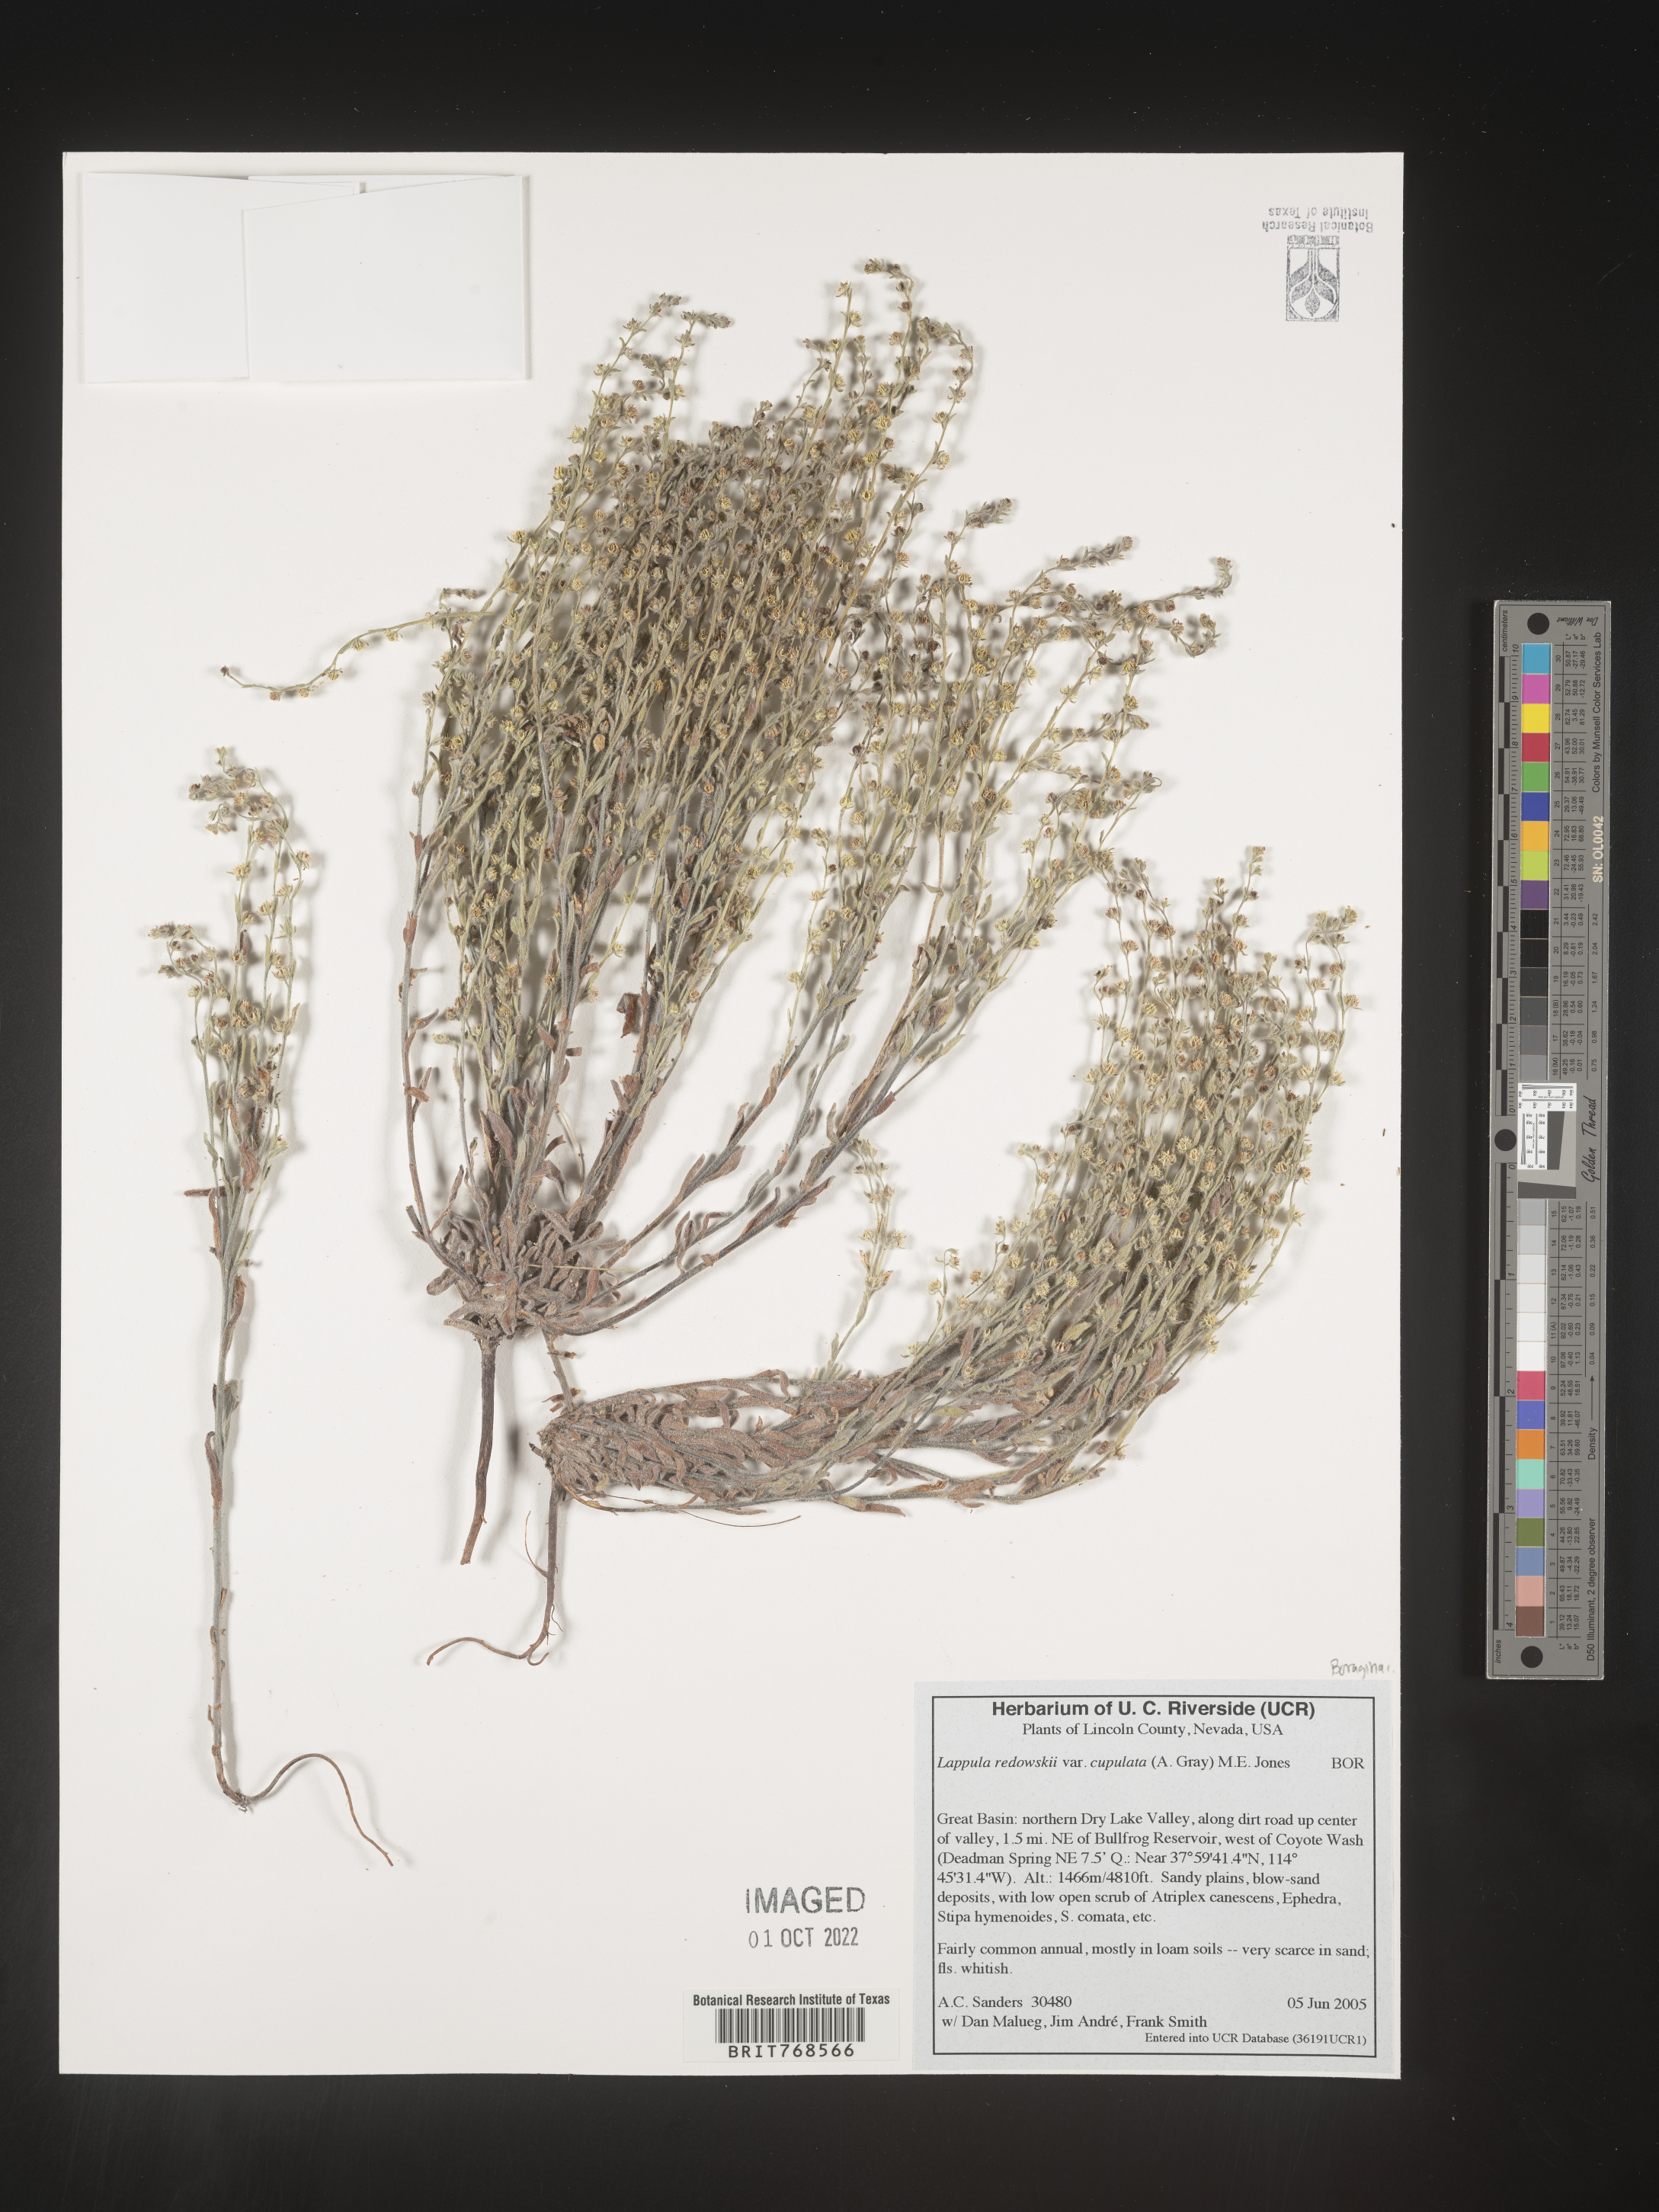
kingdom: Plantae
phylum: Tracheophyta
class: Magnoliopsida
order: Boraginales
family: Boraginaceae
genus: Lappula
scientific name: Lappula redowskii
